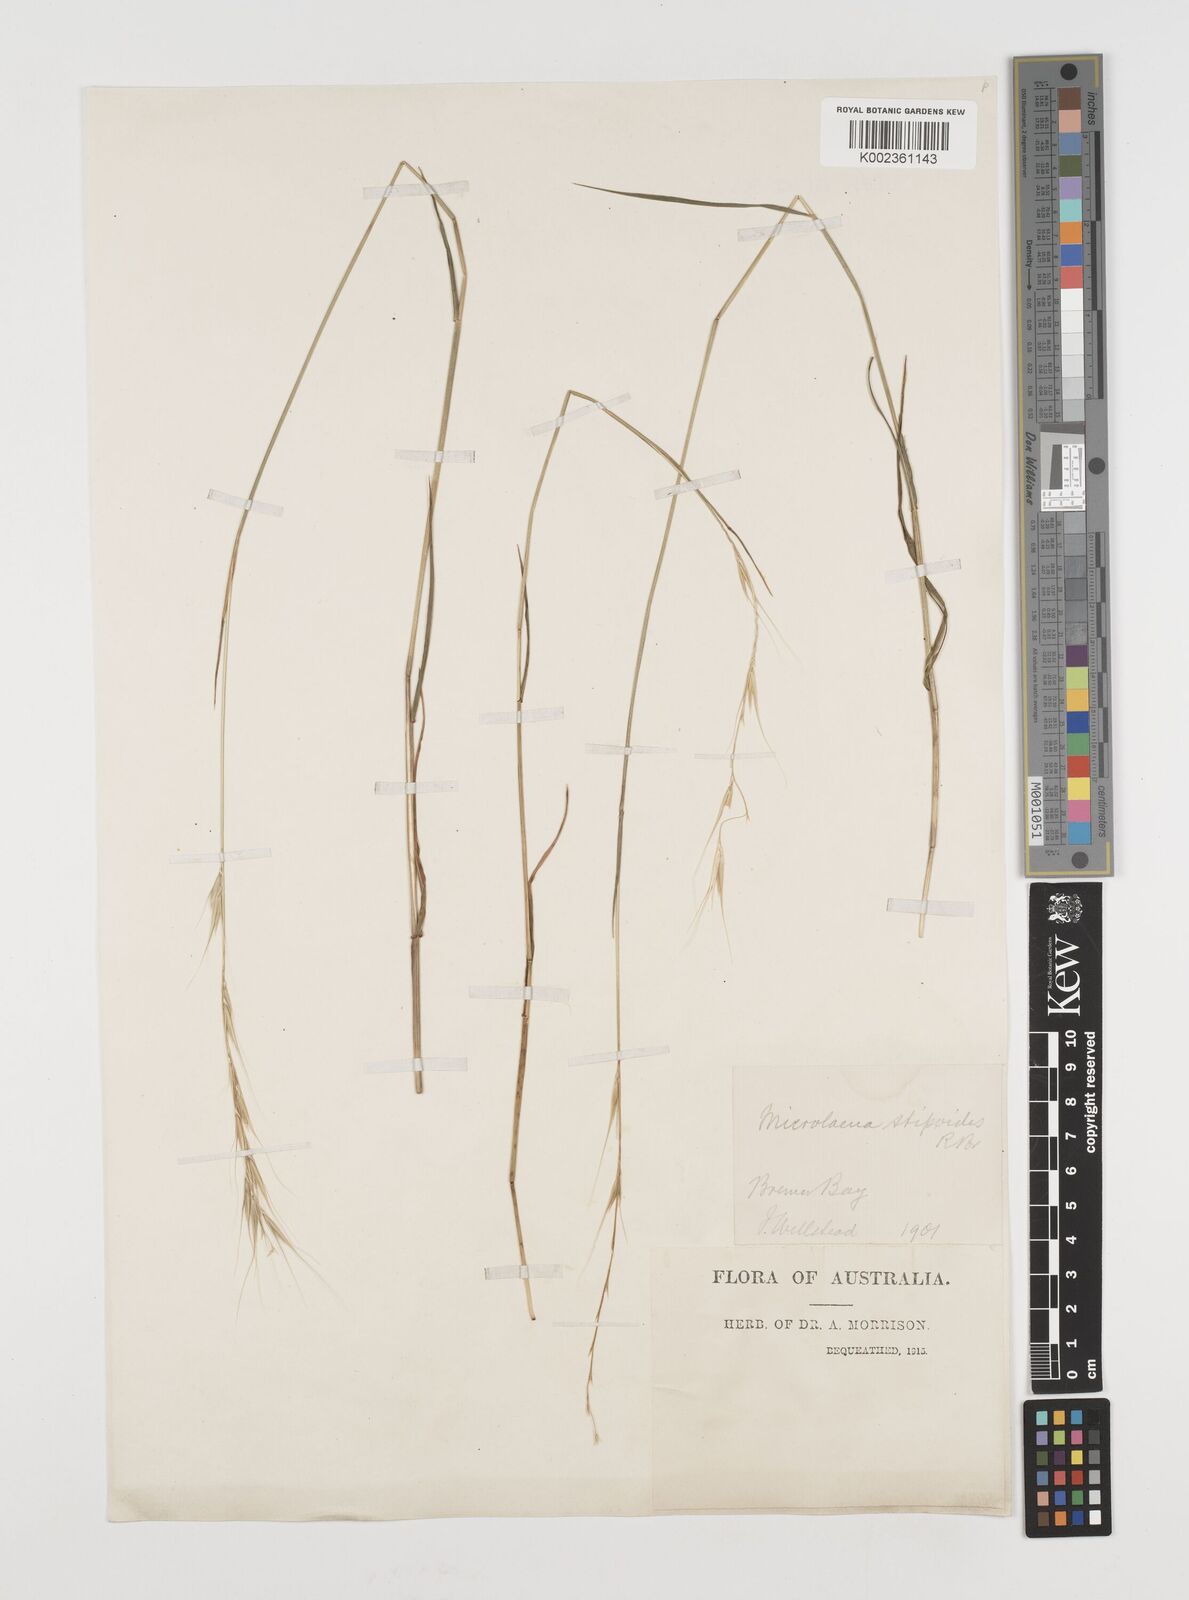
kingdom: Plantae
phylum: Tracheophyta
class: Liliopsida
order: Poales
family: Poaceae
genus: Microlaena
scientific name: Microlaena stipoides
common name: Meadow ricegrass
